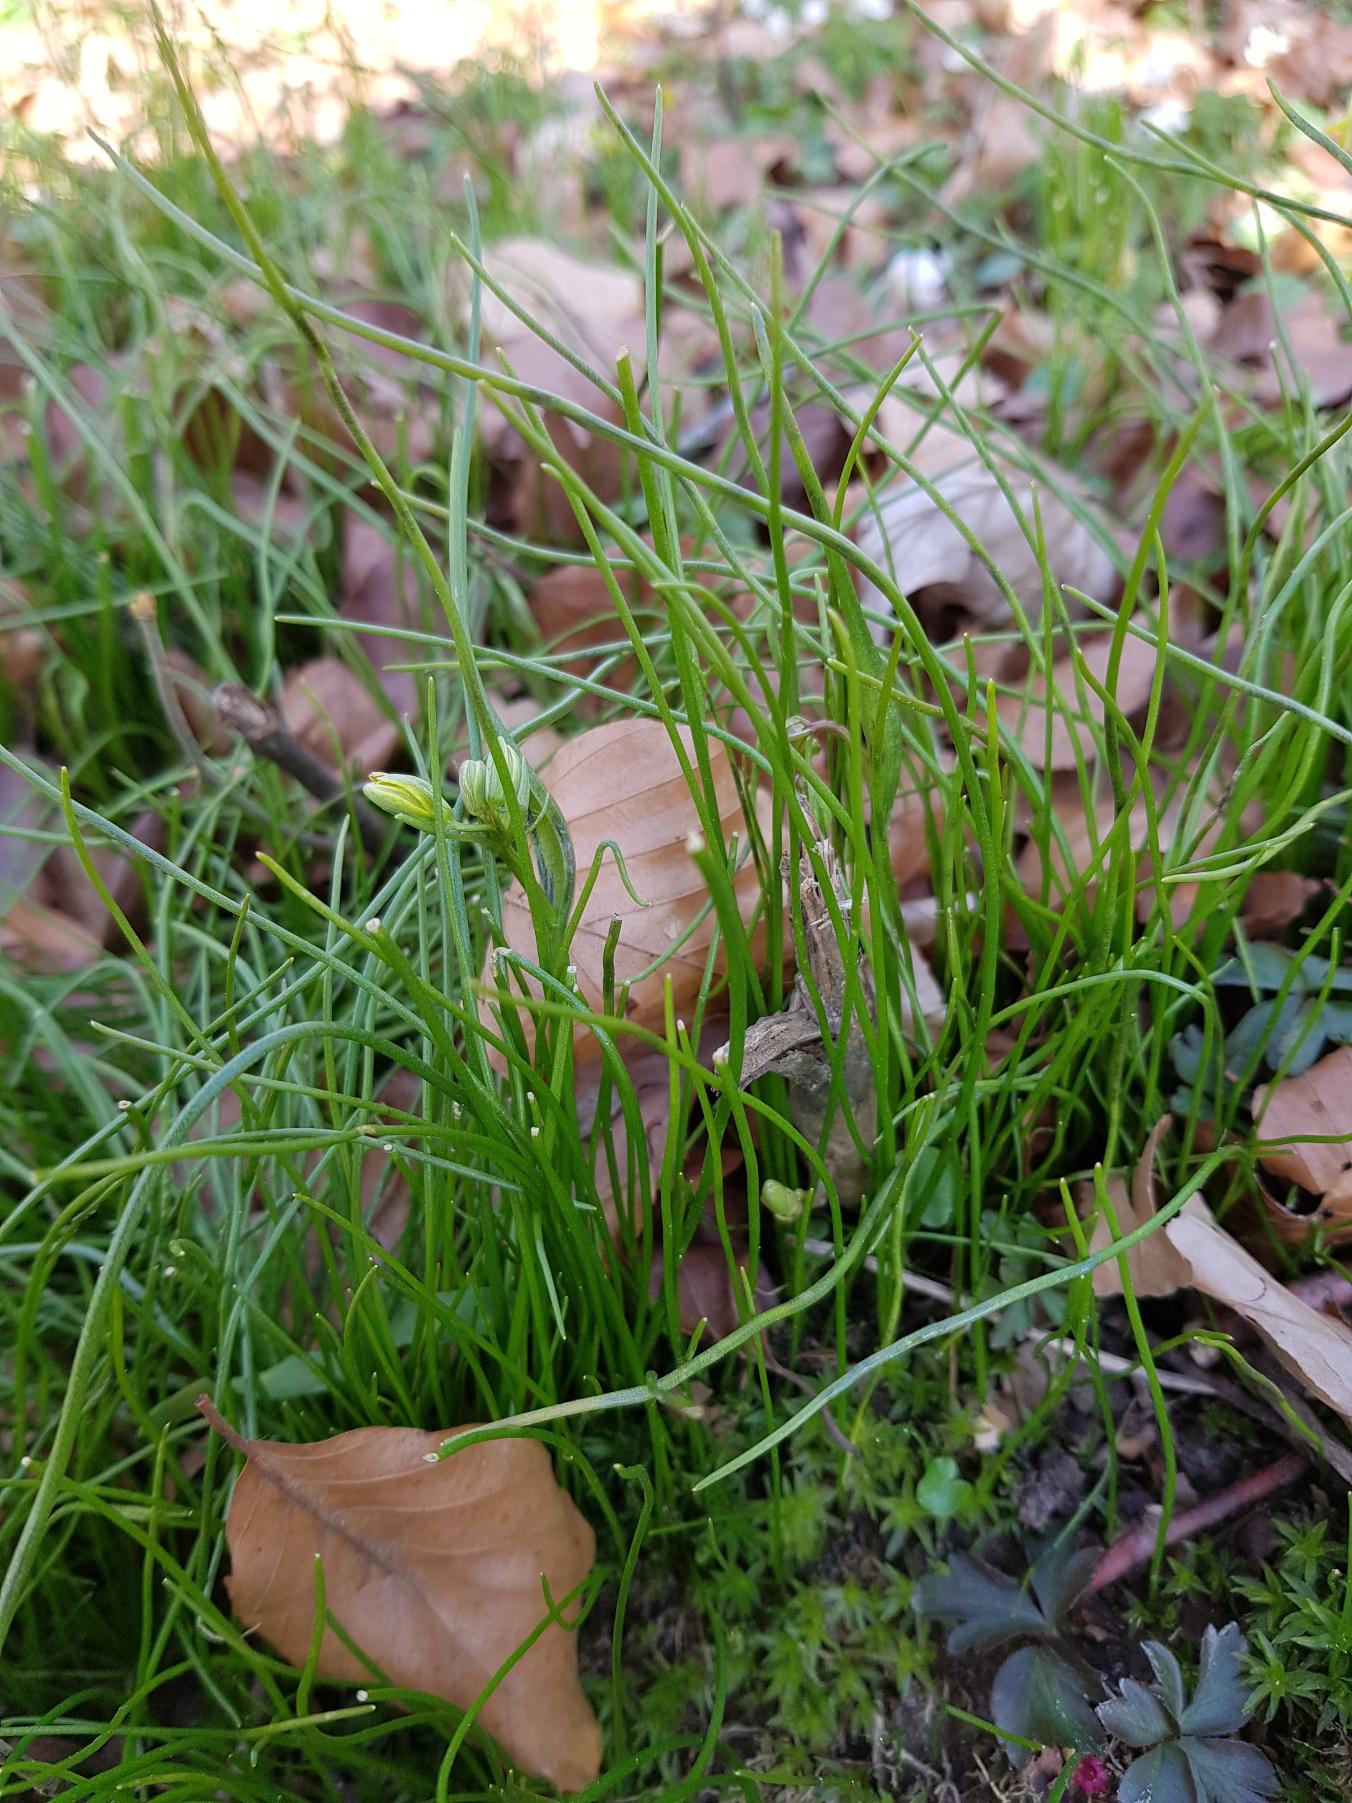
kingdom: Plantae
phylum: Tracheophyta
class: Liliopsida
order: Liliales
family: Liliaceae
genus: Gagea
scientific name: Gagea spathacea
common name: Hylster-guldstjerne
